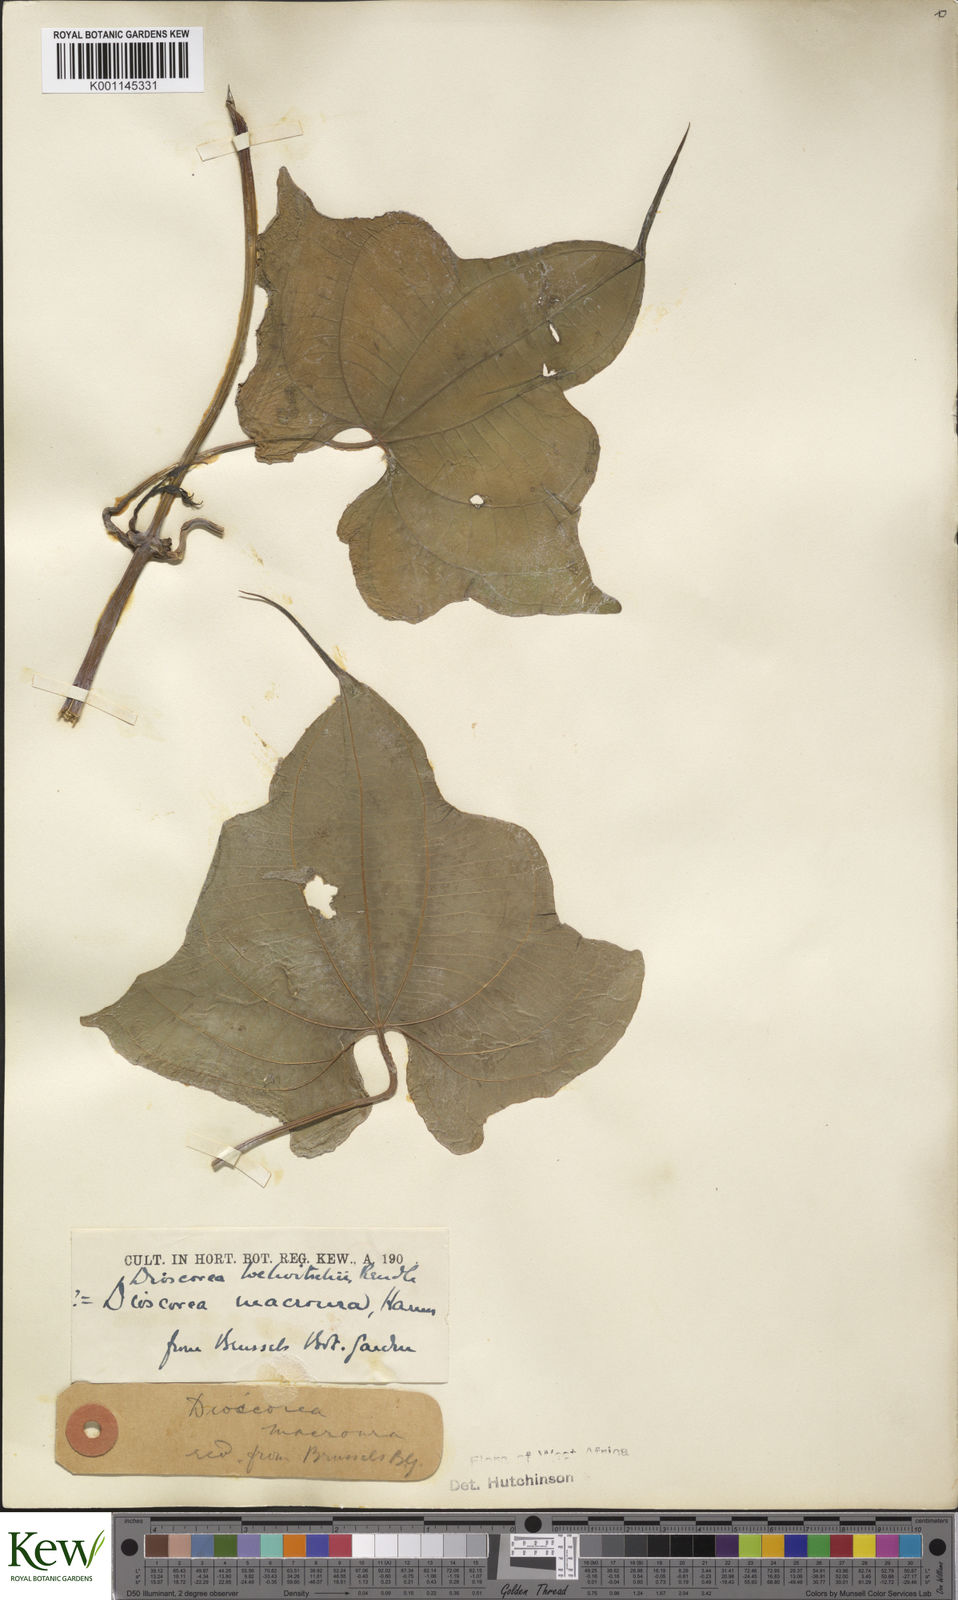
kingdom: Plantae
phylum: Tracheophyta
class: Liliopsida
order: Dioscoreales
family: Dioscoreaceae
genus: Dioscorea
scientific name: Dioscorea sansibarensis
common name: Zanzibar yam
